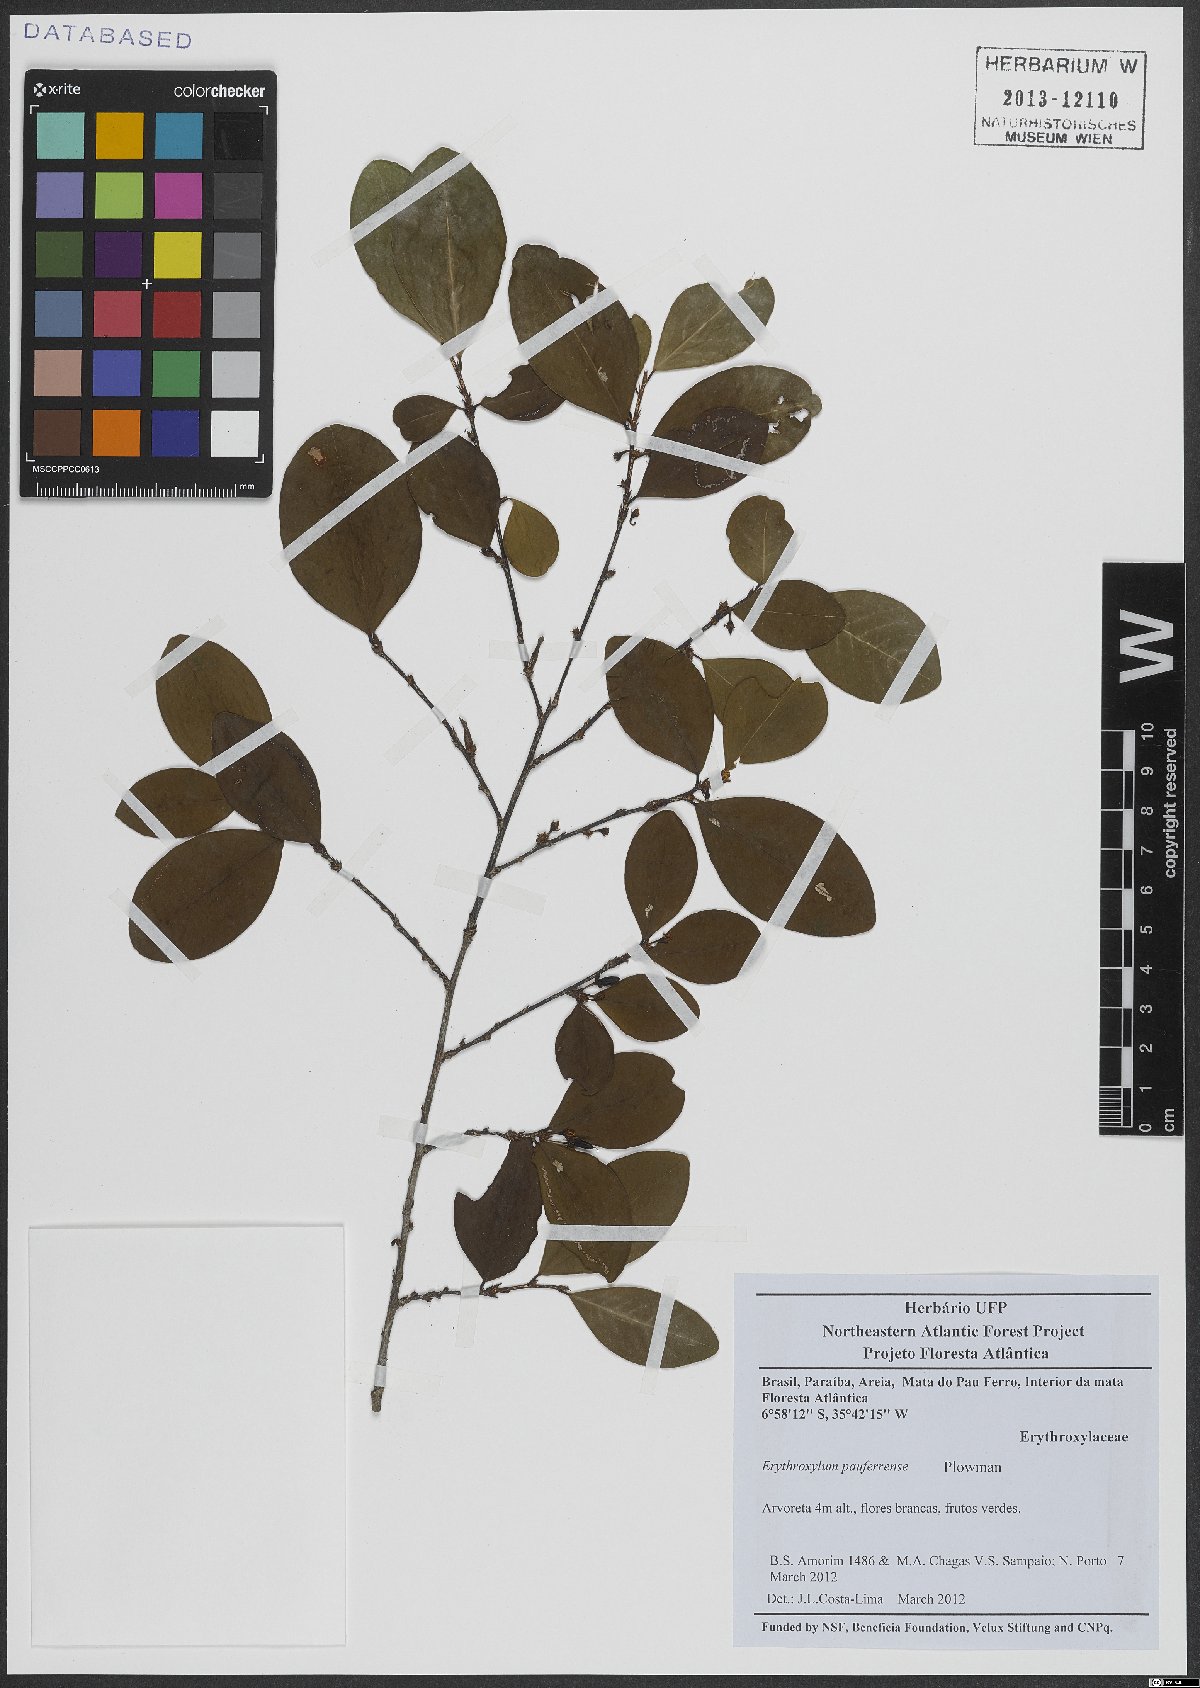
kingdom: Plantae
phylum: Tracheophyta
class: Magnoliopsida
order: Malpighiales
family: Erythroxylaceae
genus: Erythroxylum
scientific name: Erythroxylum pauferrense
